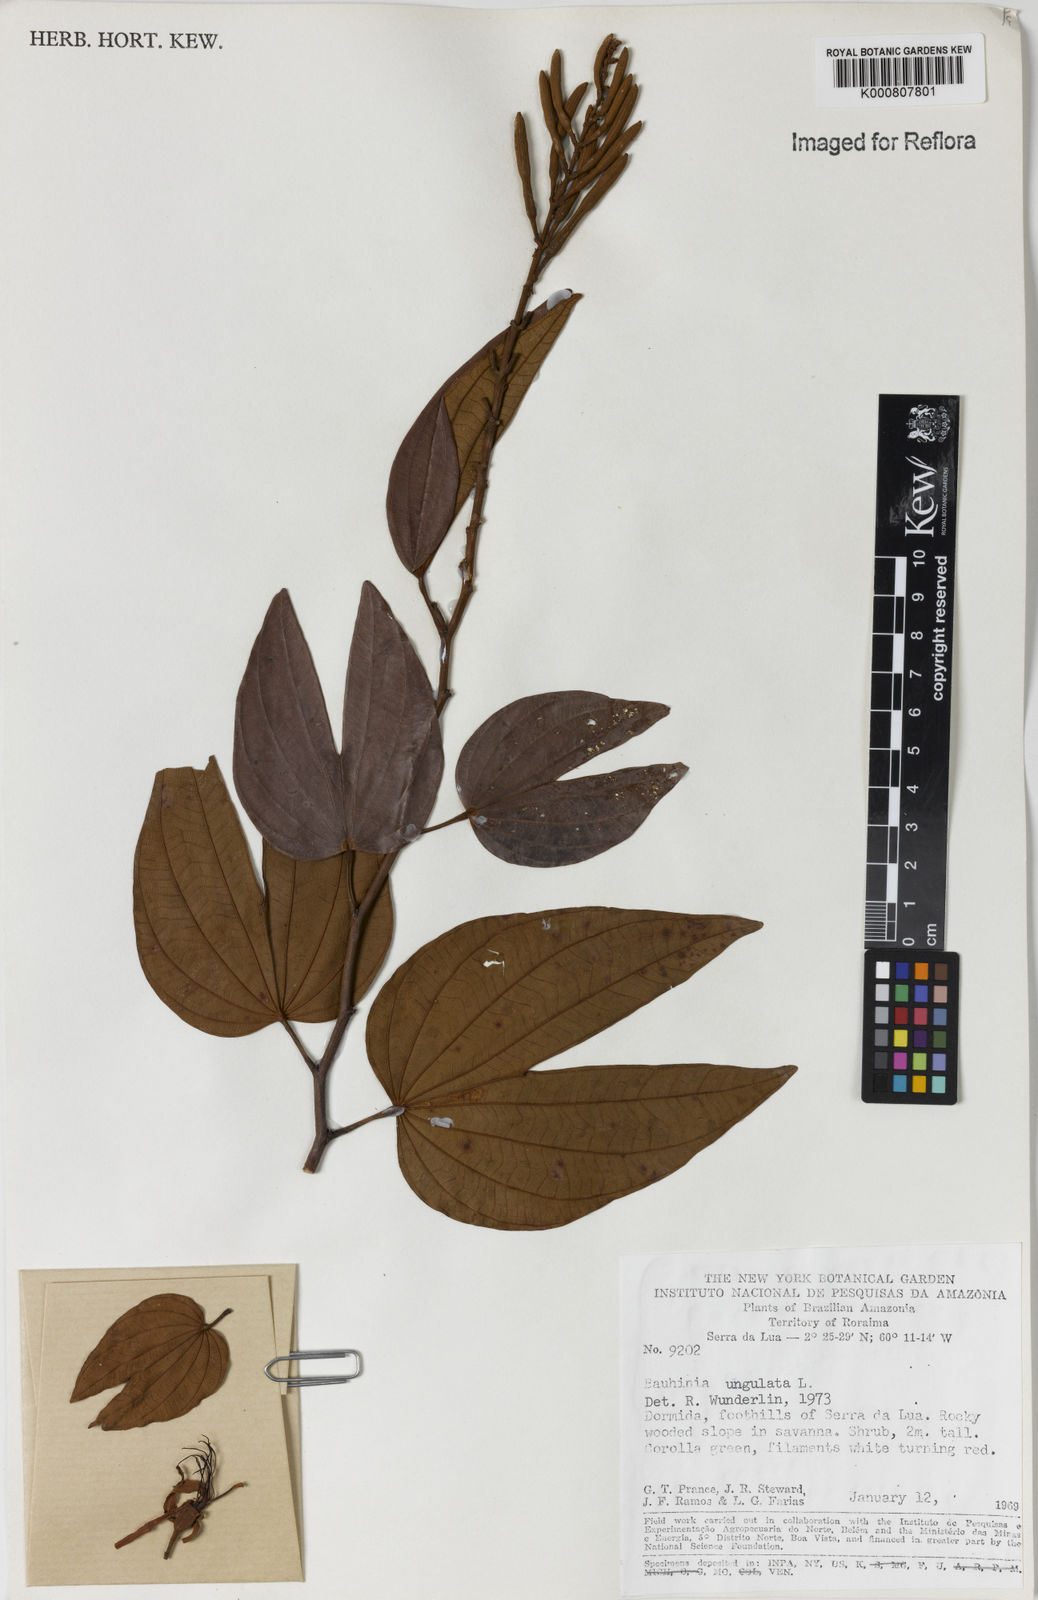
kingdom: Plantae
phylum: Tracheophyta
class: Magnoliopsida
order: Fabales
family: Fabaceae
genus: Bauhinia
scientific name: Bauhinia ungulata
